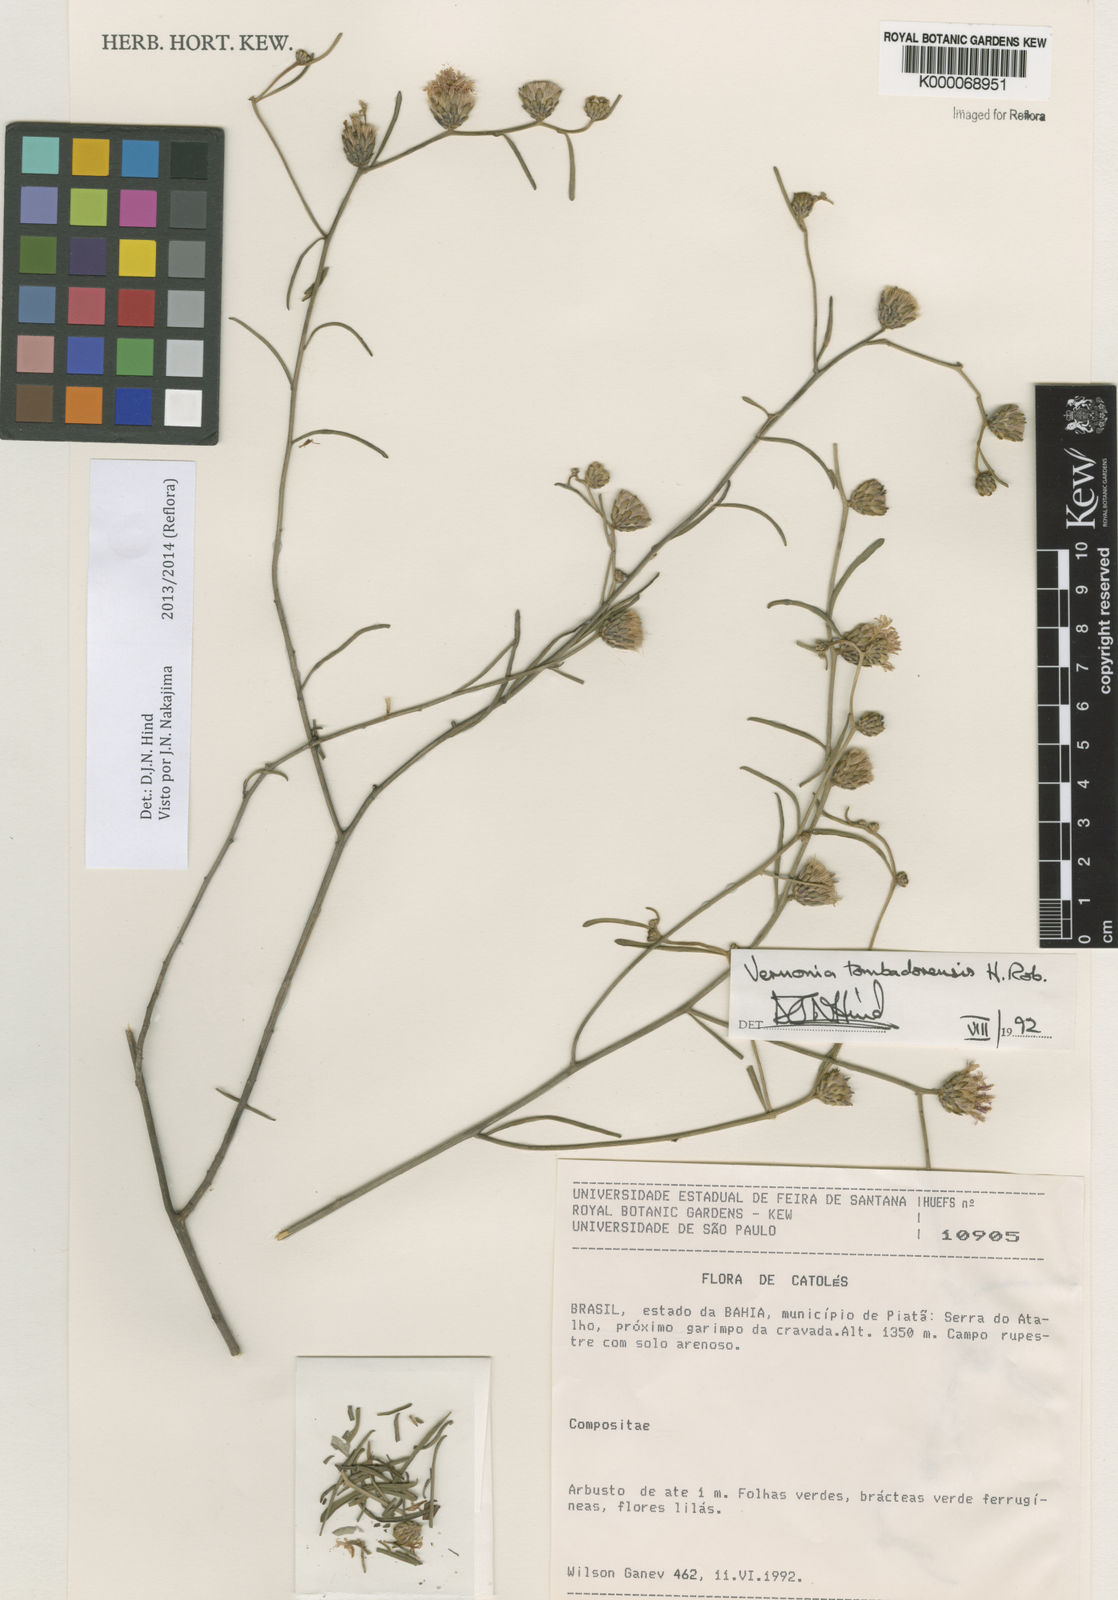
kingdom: Plantae
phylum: Tracheophyta
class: Magnoliopsida
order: Asterales
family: Asteraceae
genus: Lepidaploa
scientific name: Lepidaploa tombadorensis
